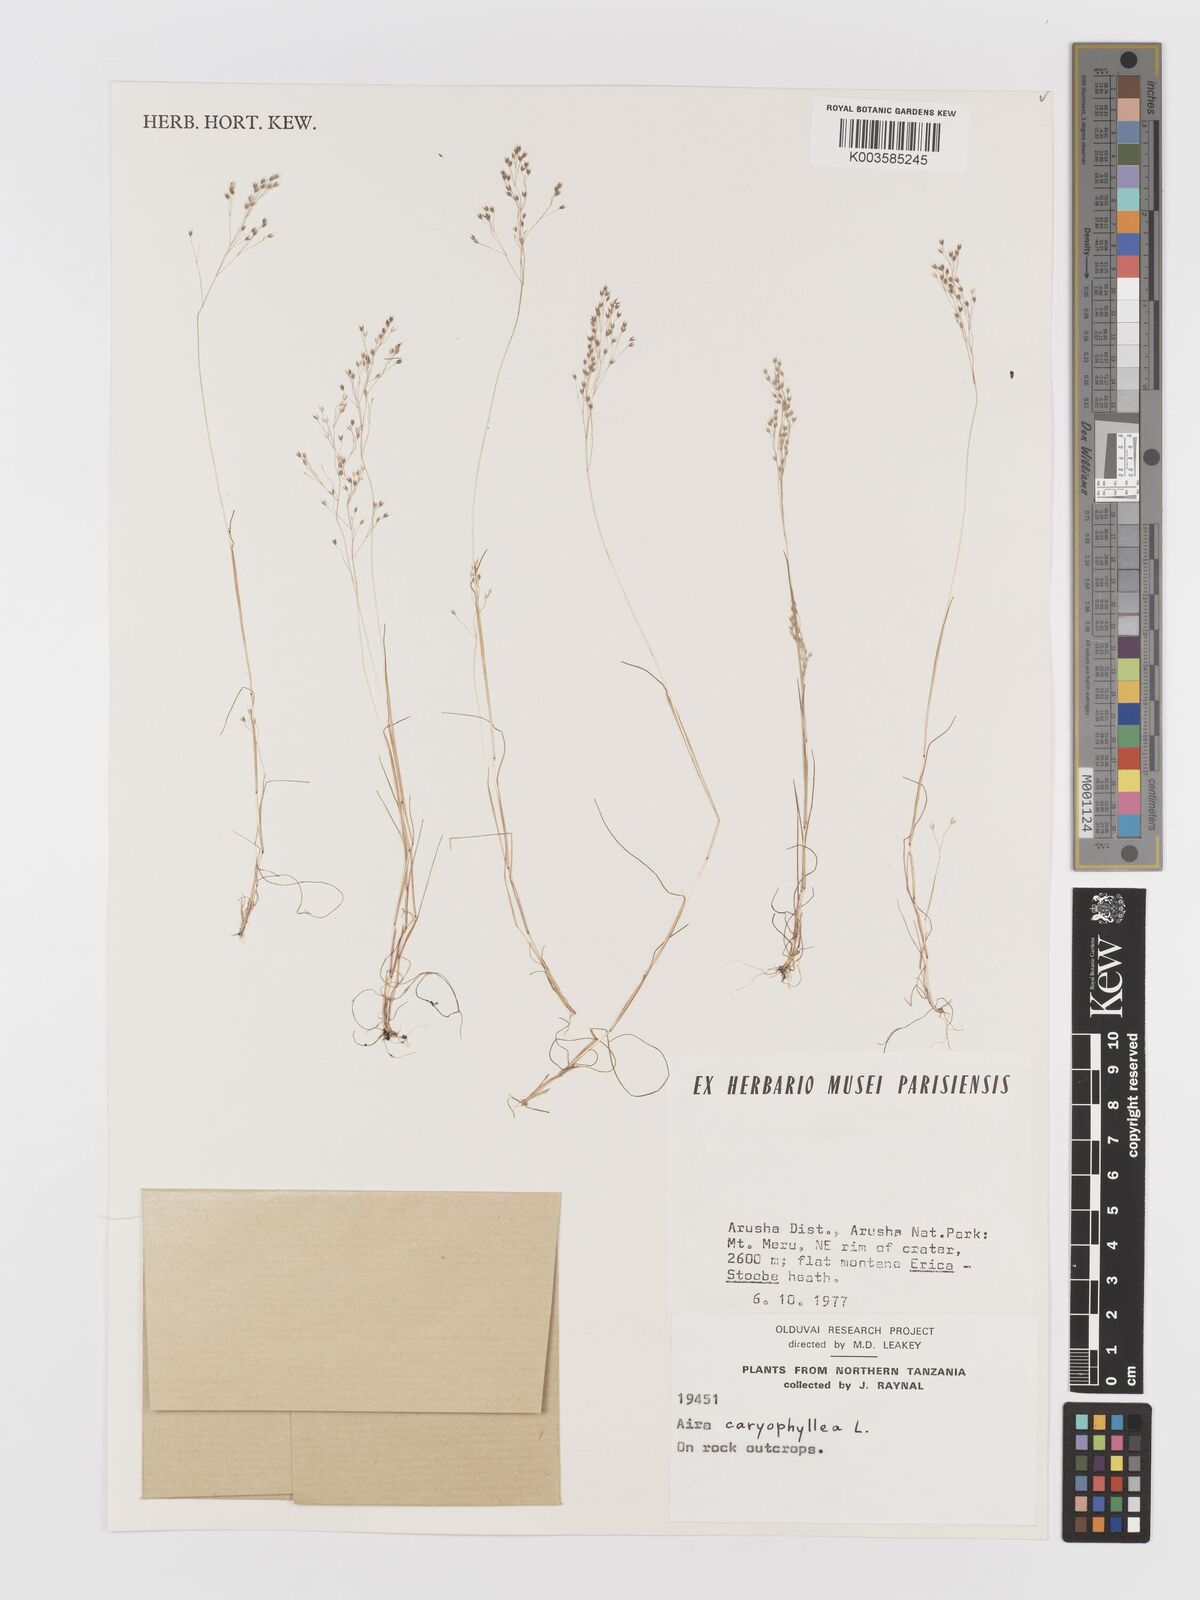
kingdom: Plantae
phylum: Tracheophyta
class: Liliopsida
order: Poales
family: Poaceae
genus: Aira
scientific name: Aira caryophyllea
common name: Silver hairgrass
